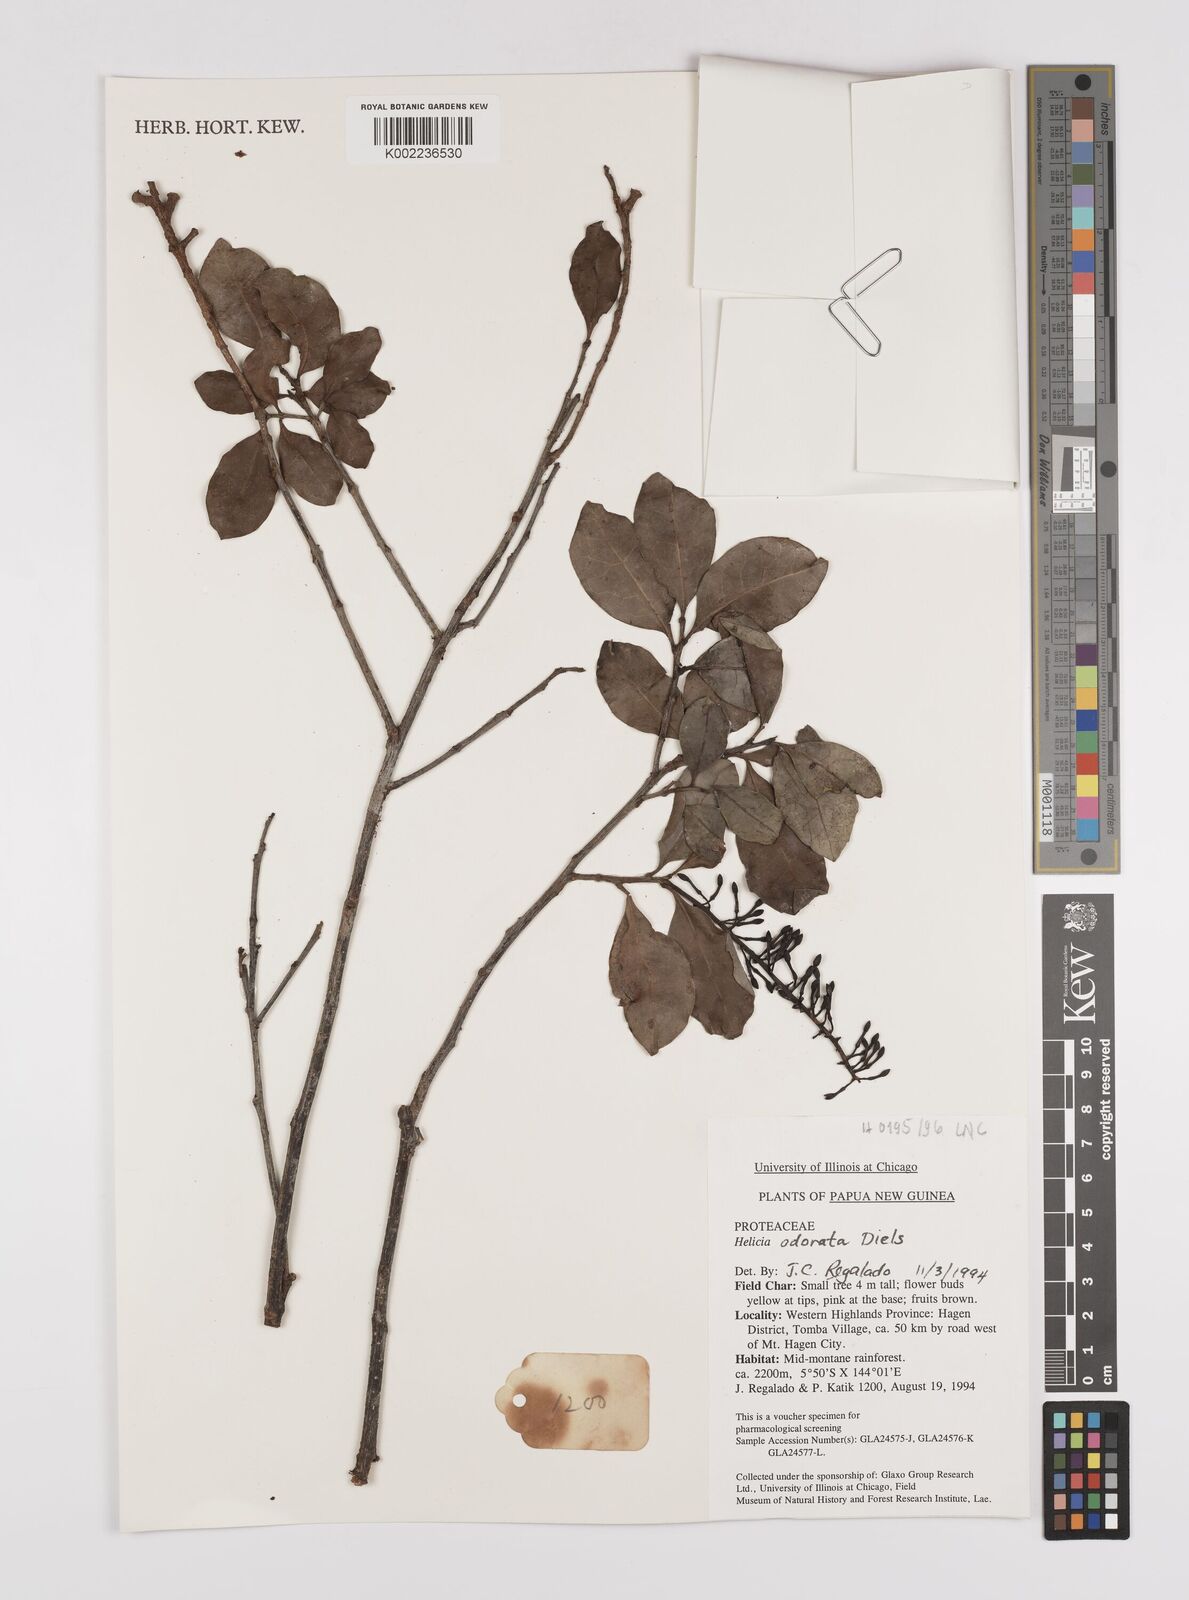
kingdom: Plantae
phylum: Tracheophyta
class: Magnoliopsida
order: Proteales
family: Proteaceae
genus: Helicia
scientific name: Helicia odorata
